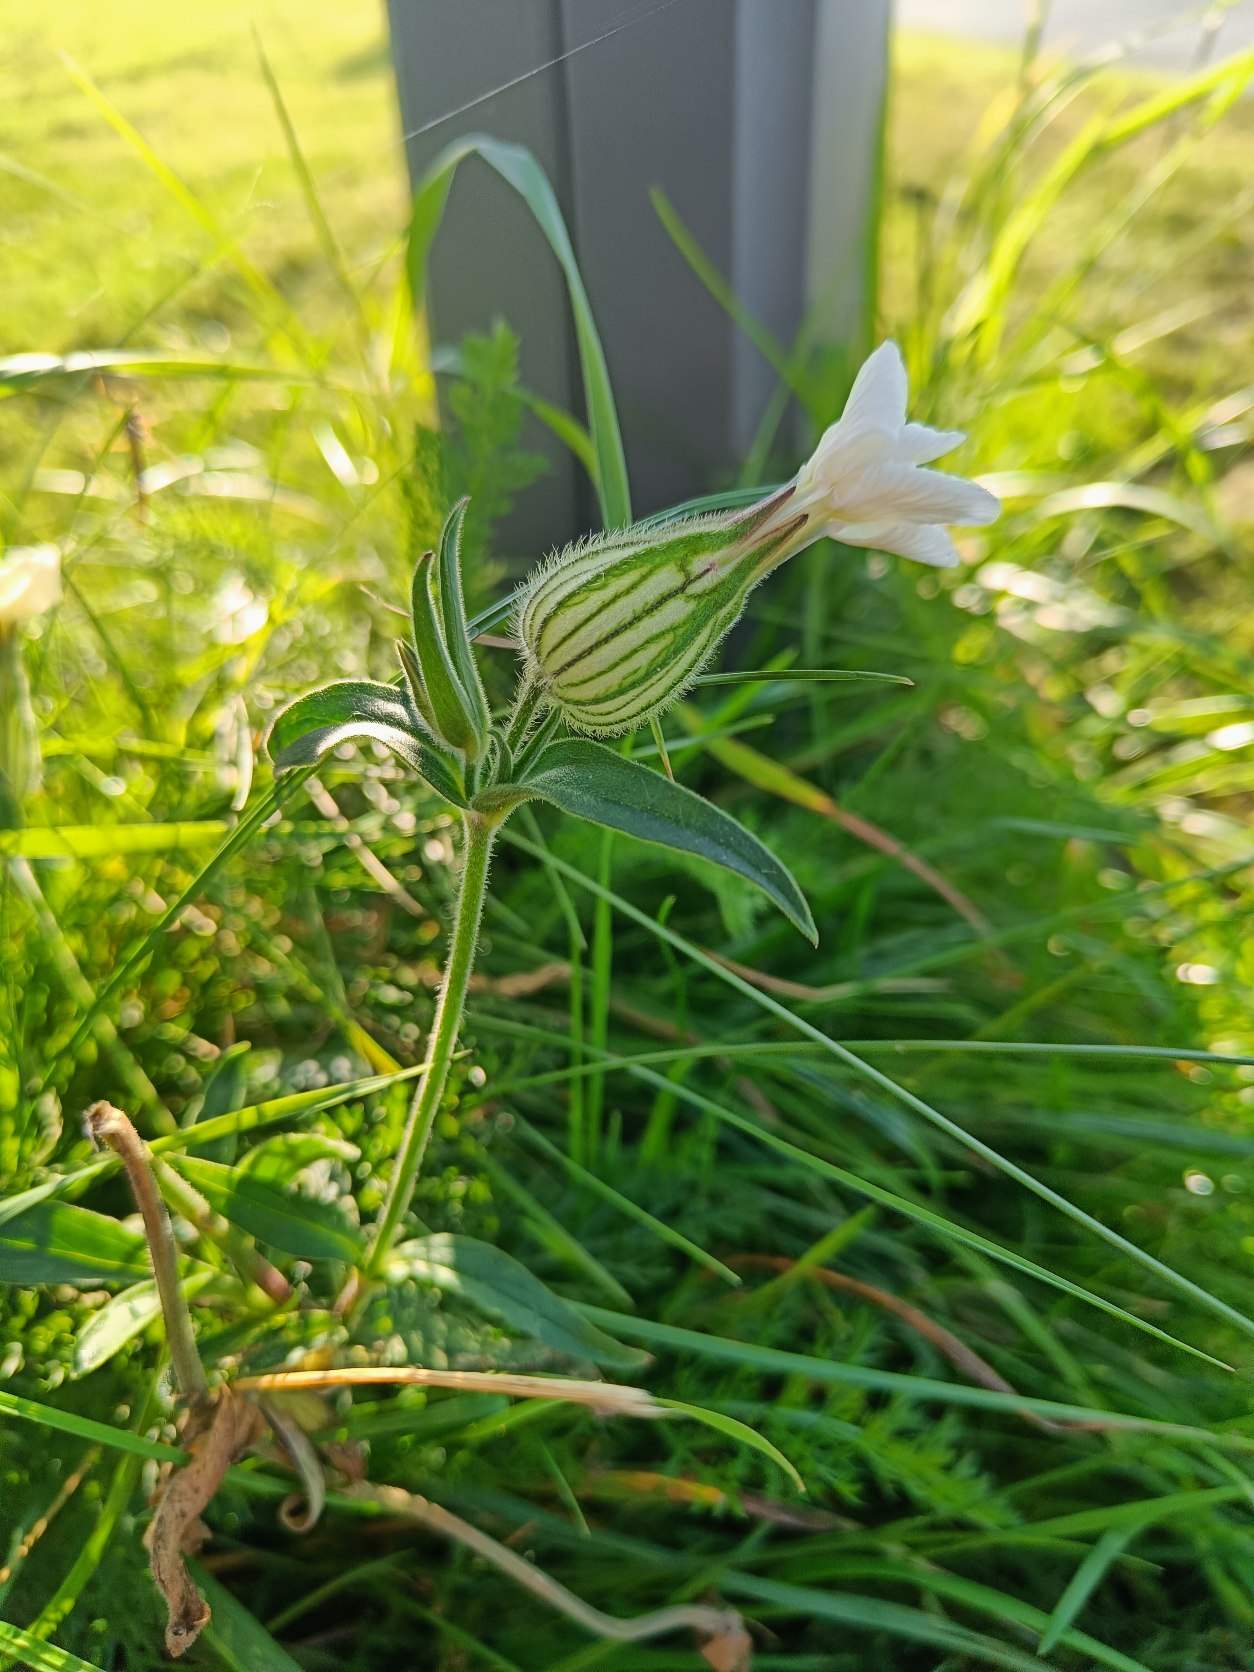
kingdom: Plantae
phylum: Tracheophyta
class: Magnoliopsida
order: Caryophyllales
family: Caryophyllaceae
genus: Silene
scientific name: Silene latifolia
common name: Aftenpragtstjerne
